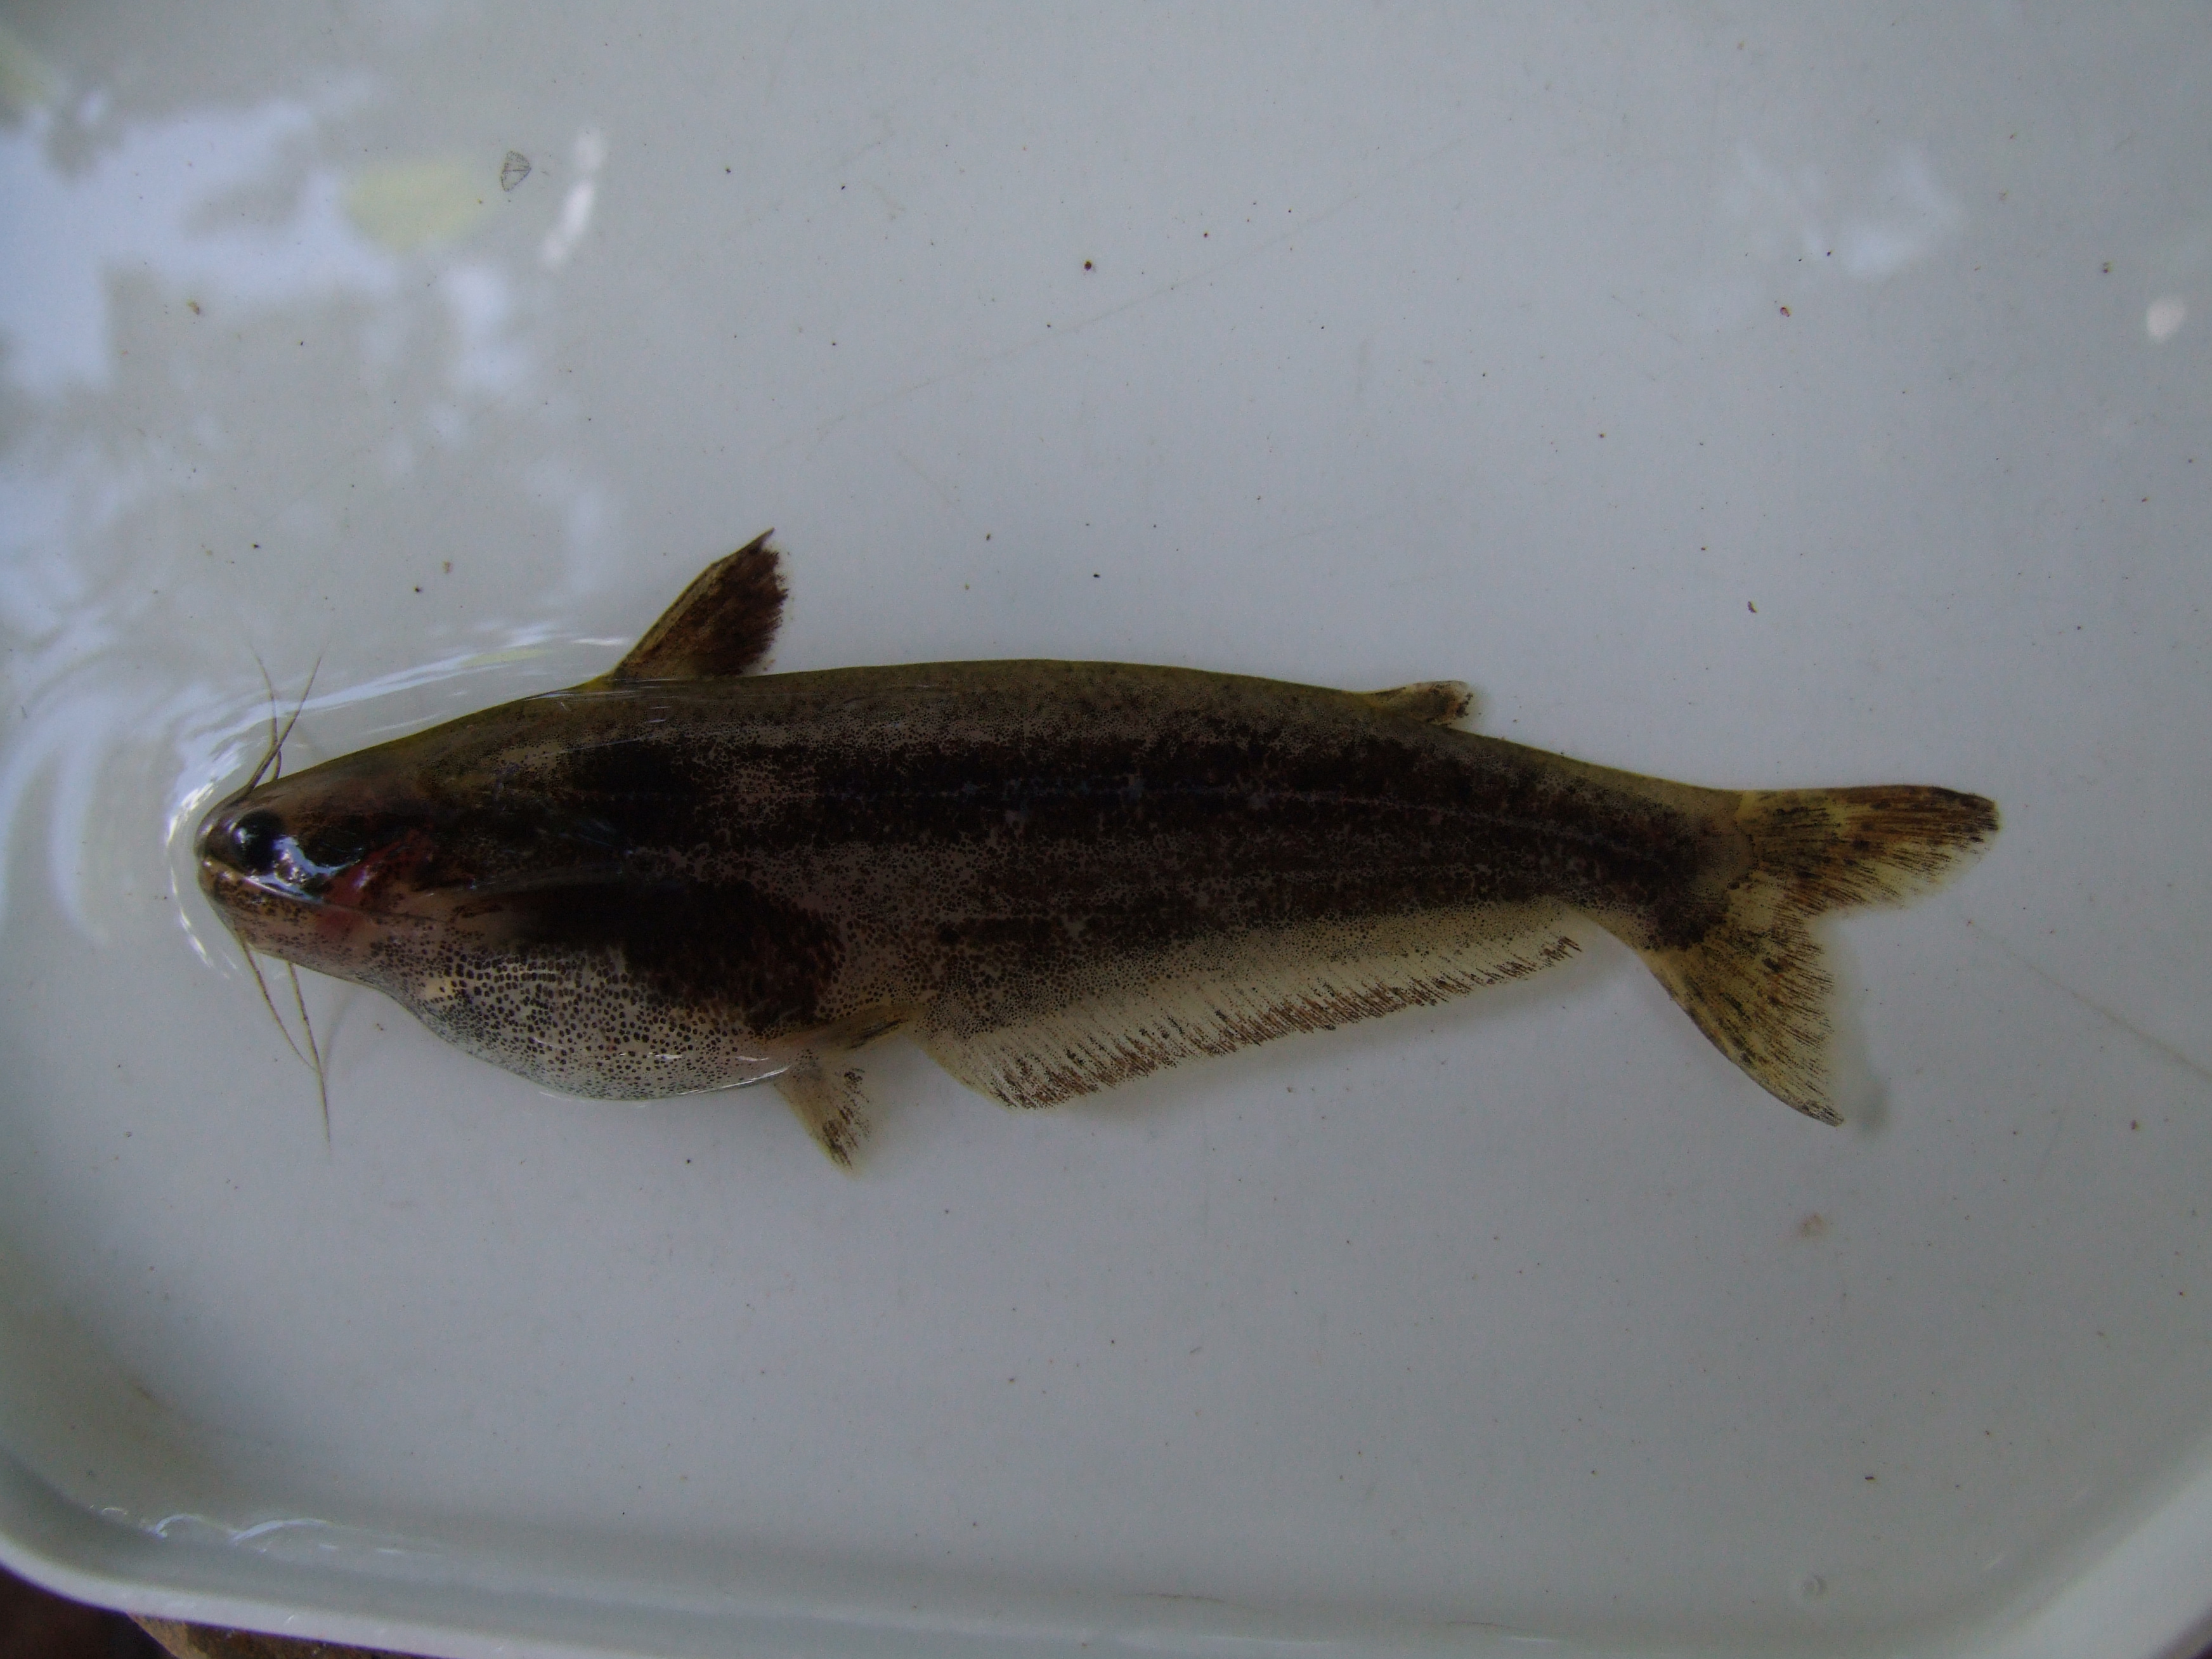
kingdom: Animalia
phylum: Chordata
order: Siluriformes
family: Schilbeidae
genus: Schilbe
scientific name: Schilbe yangambianus
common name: Yangambi butterbarbel
